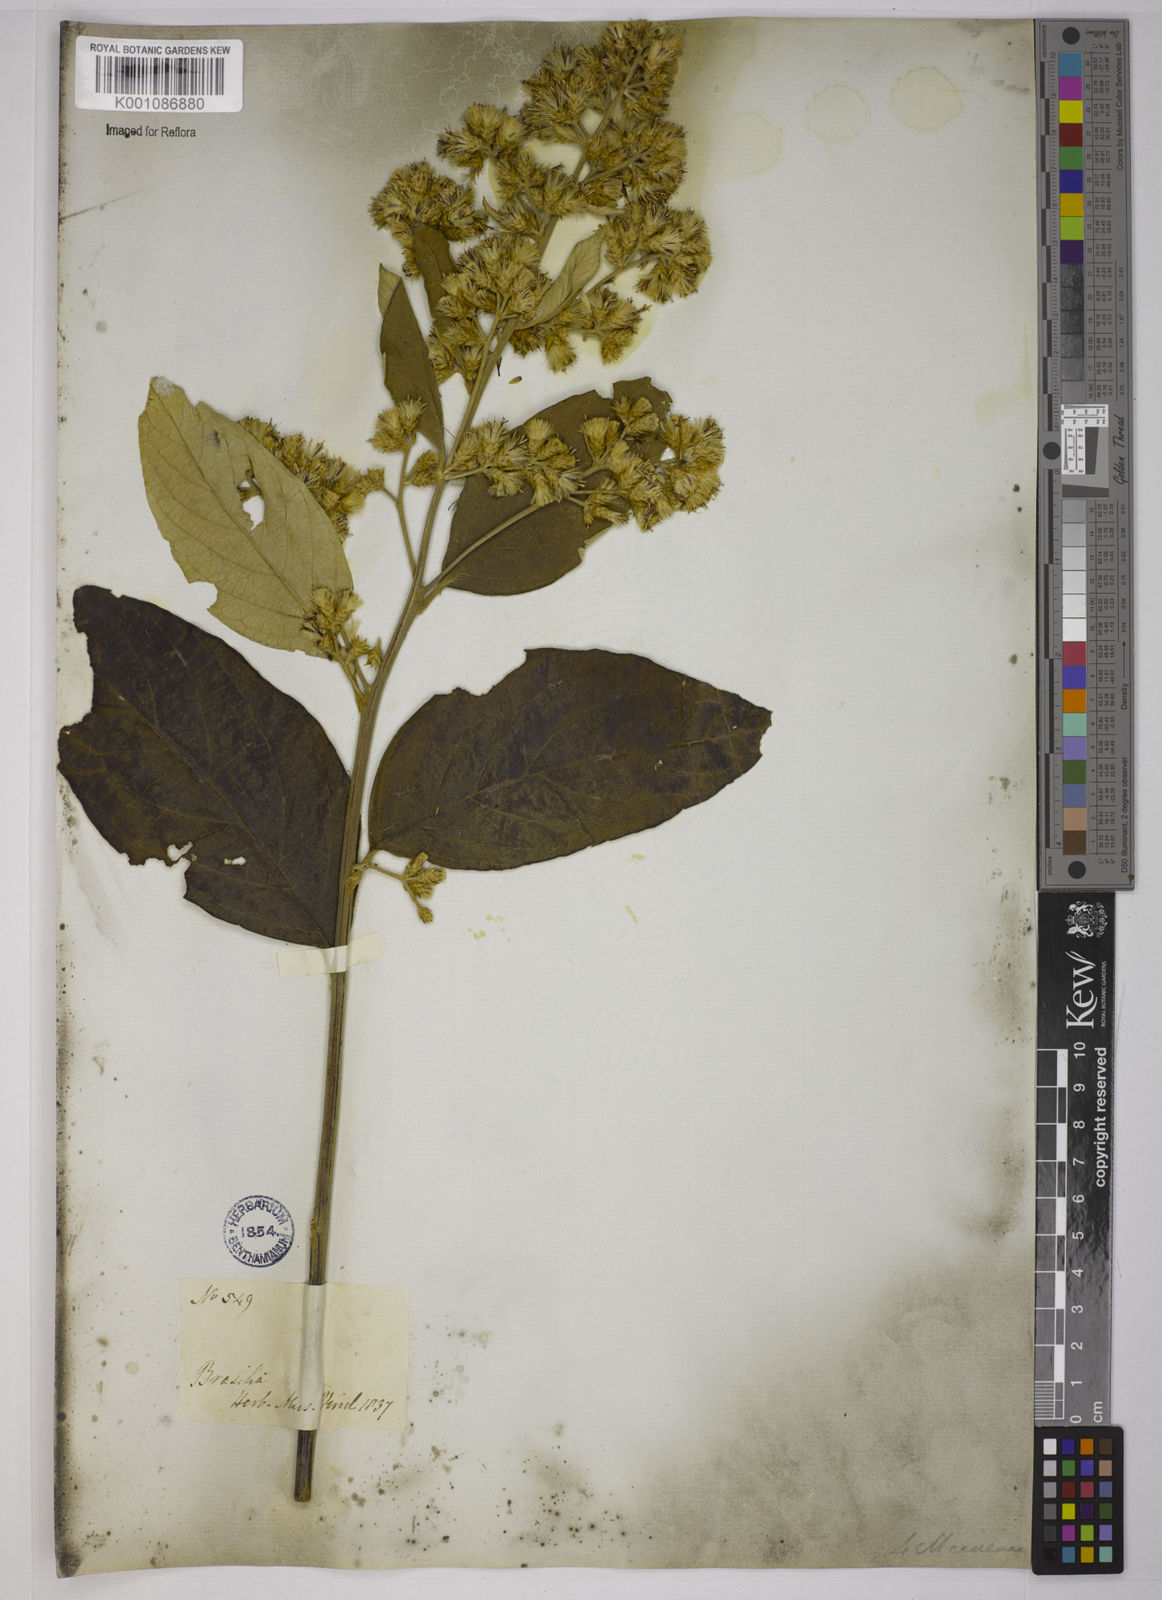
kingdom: Plantae
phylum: Tracheophyta
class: Magnoliopsida
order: Asterales
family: Asteraceae
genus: Moquiniastrum
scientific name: Moquiniastrum paniculatum
